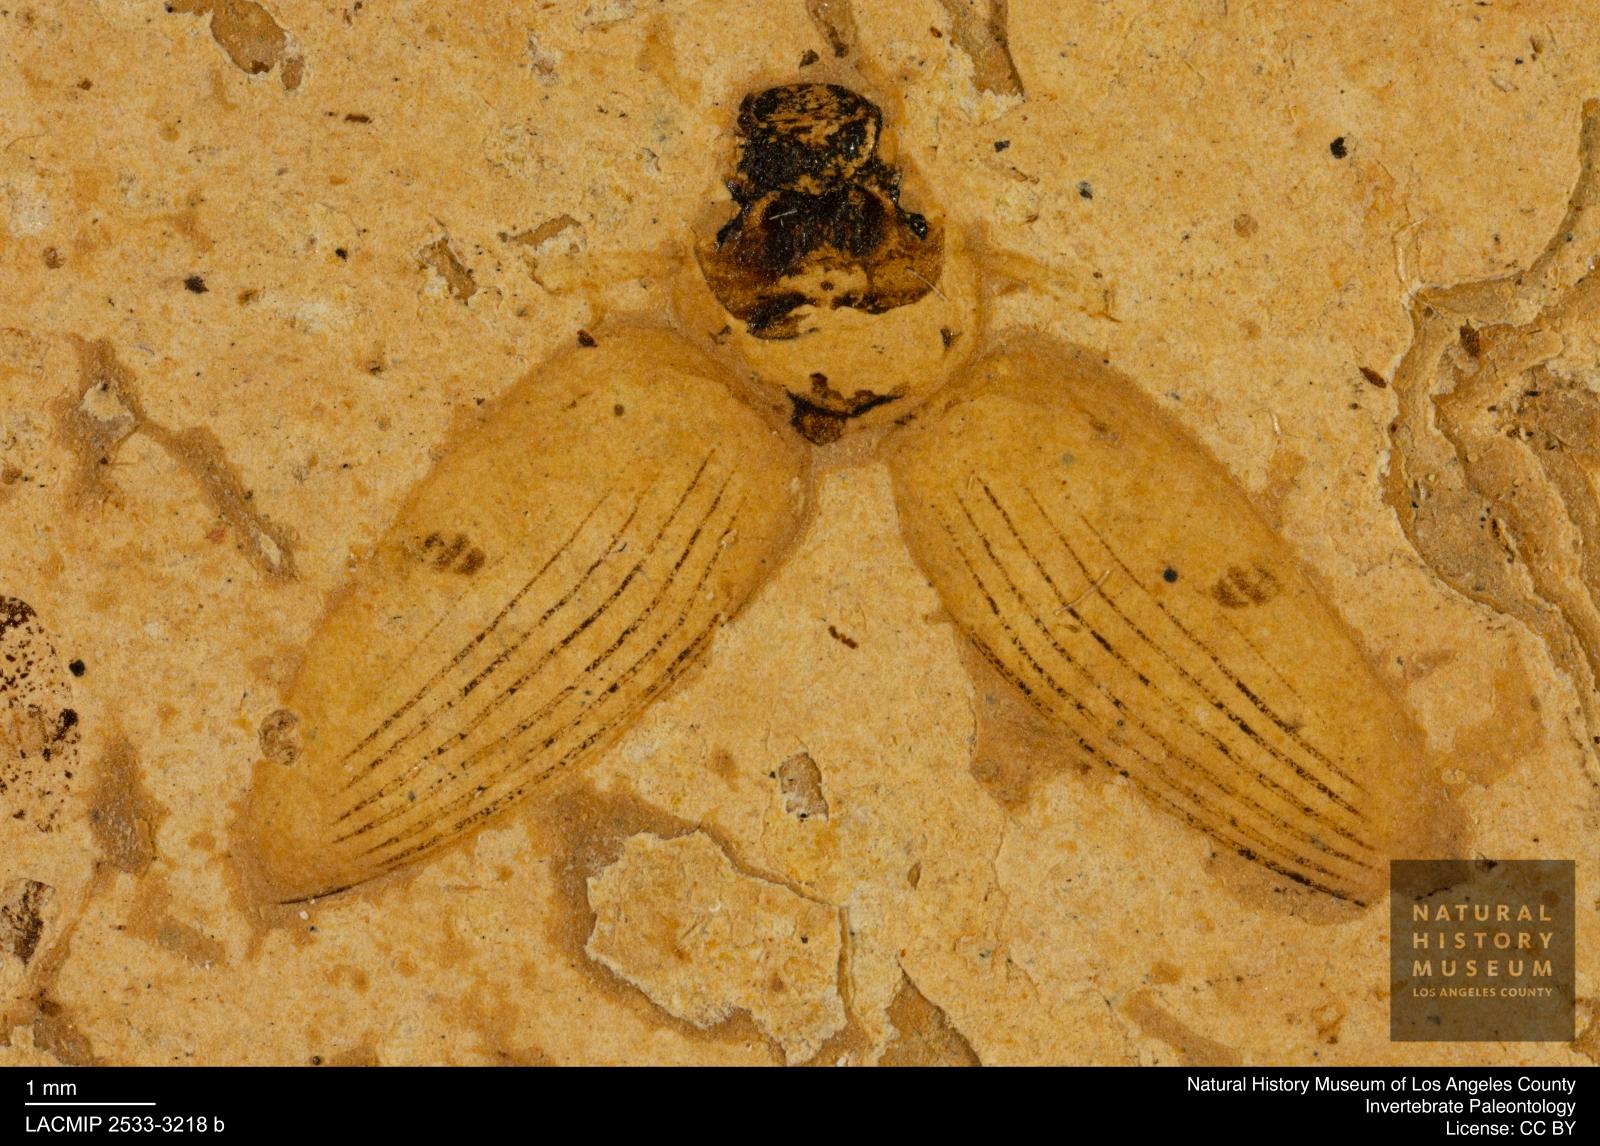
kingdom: Animalia
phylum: Arthropoda
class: Insecta
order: Coleoptera
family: Hydrophilidae
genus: Berosus
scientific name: Berosus morticinus
